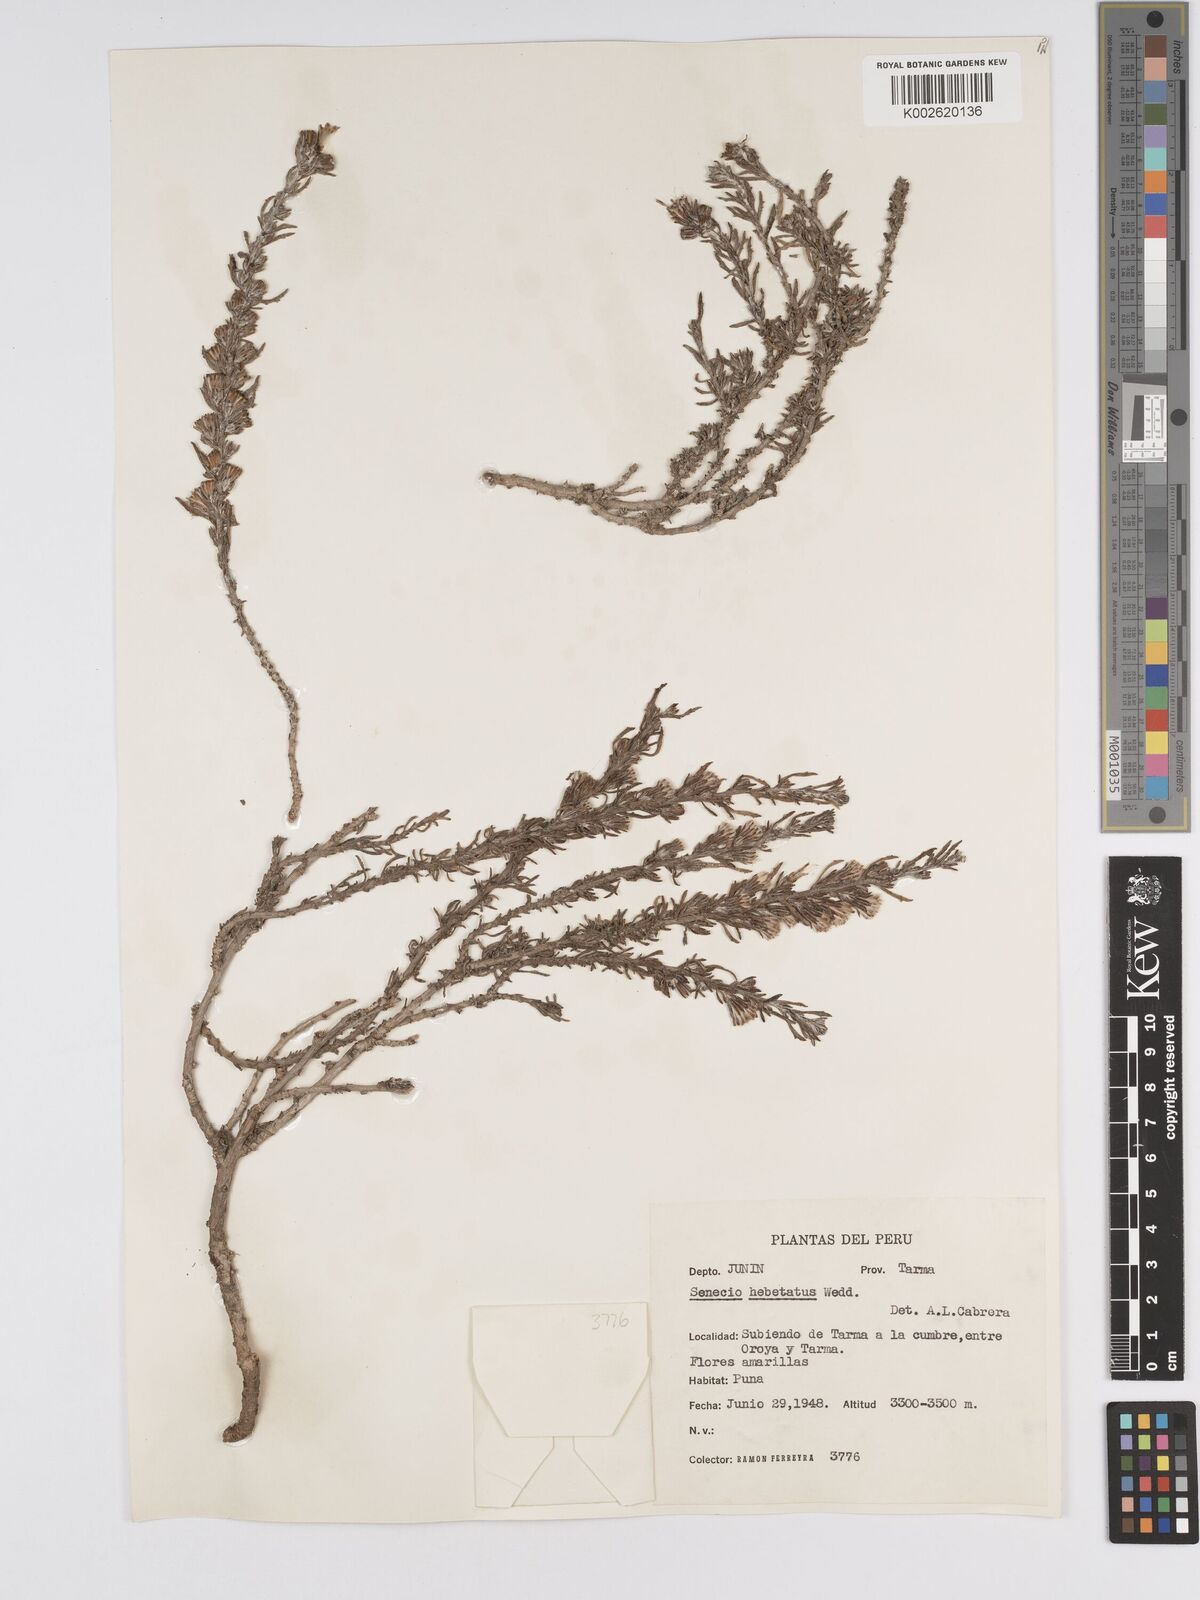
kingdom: Plantae
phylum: Tracheophyta
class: Magnoliopsida
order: Asterales
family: Asteraceae
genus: Senecio
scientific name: Senecio hebetatus
